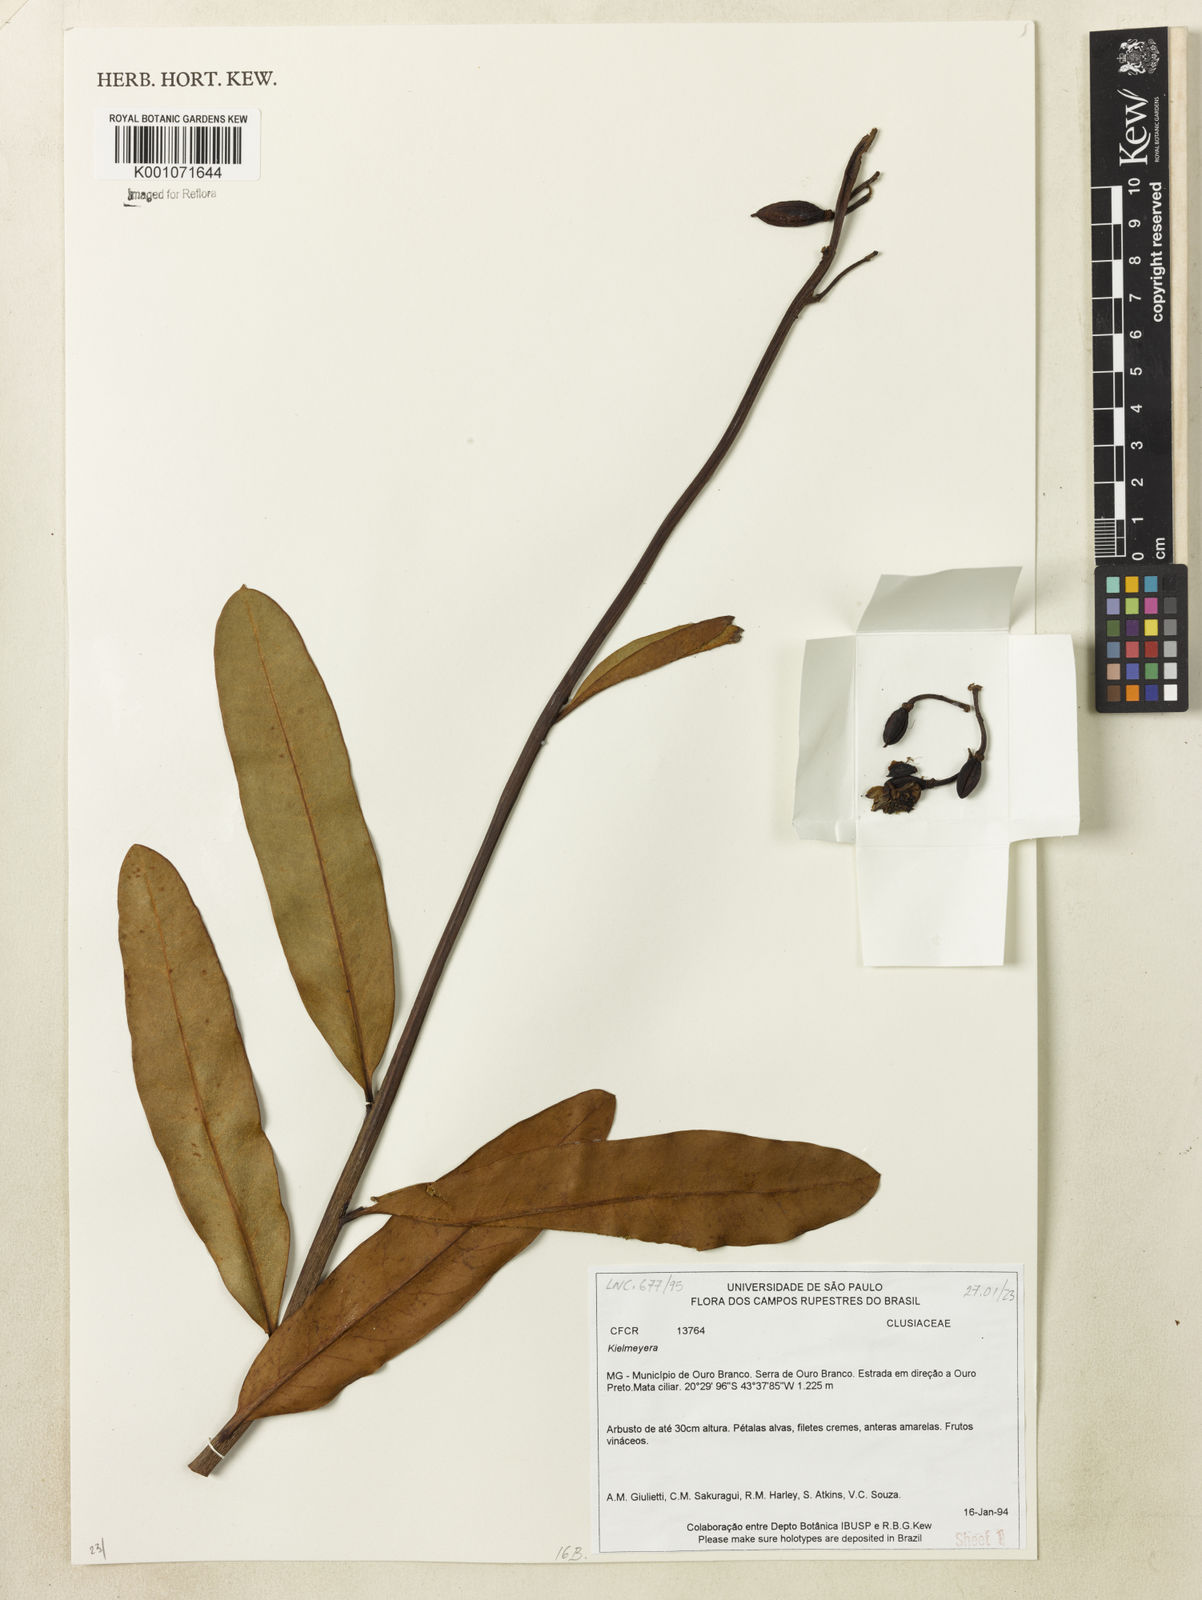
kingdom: Plantae
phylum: Tracheophyta
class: Magnoliopsida
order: Malpighiales
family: Calophyllaceae
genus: Kielmeyera
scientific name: Kielmeyera pumila
